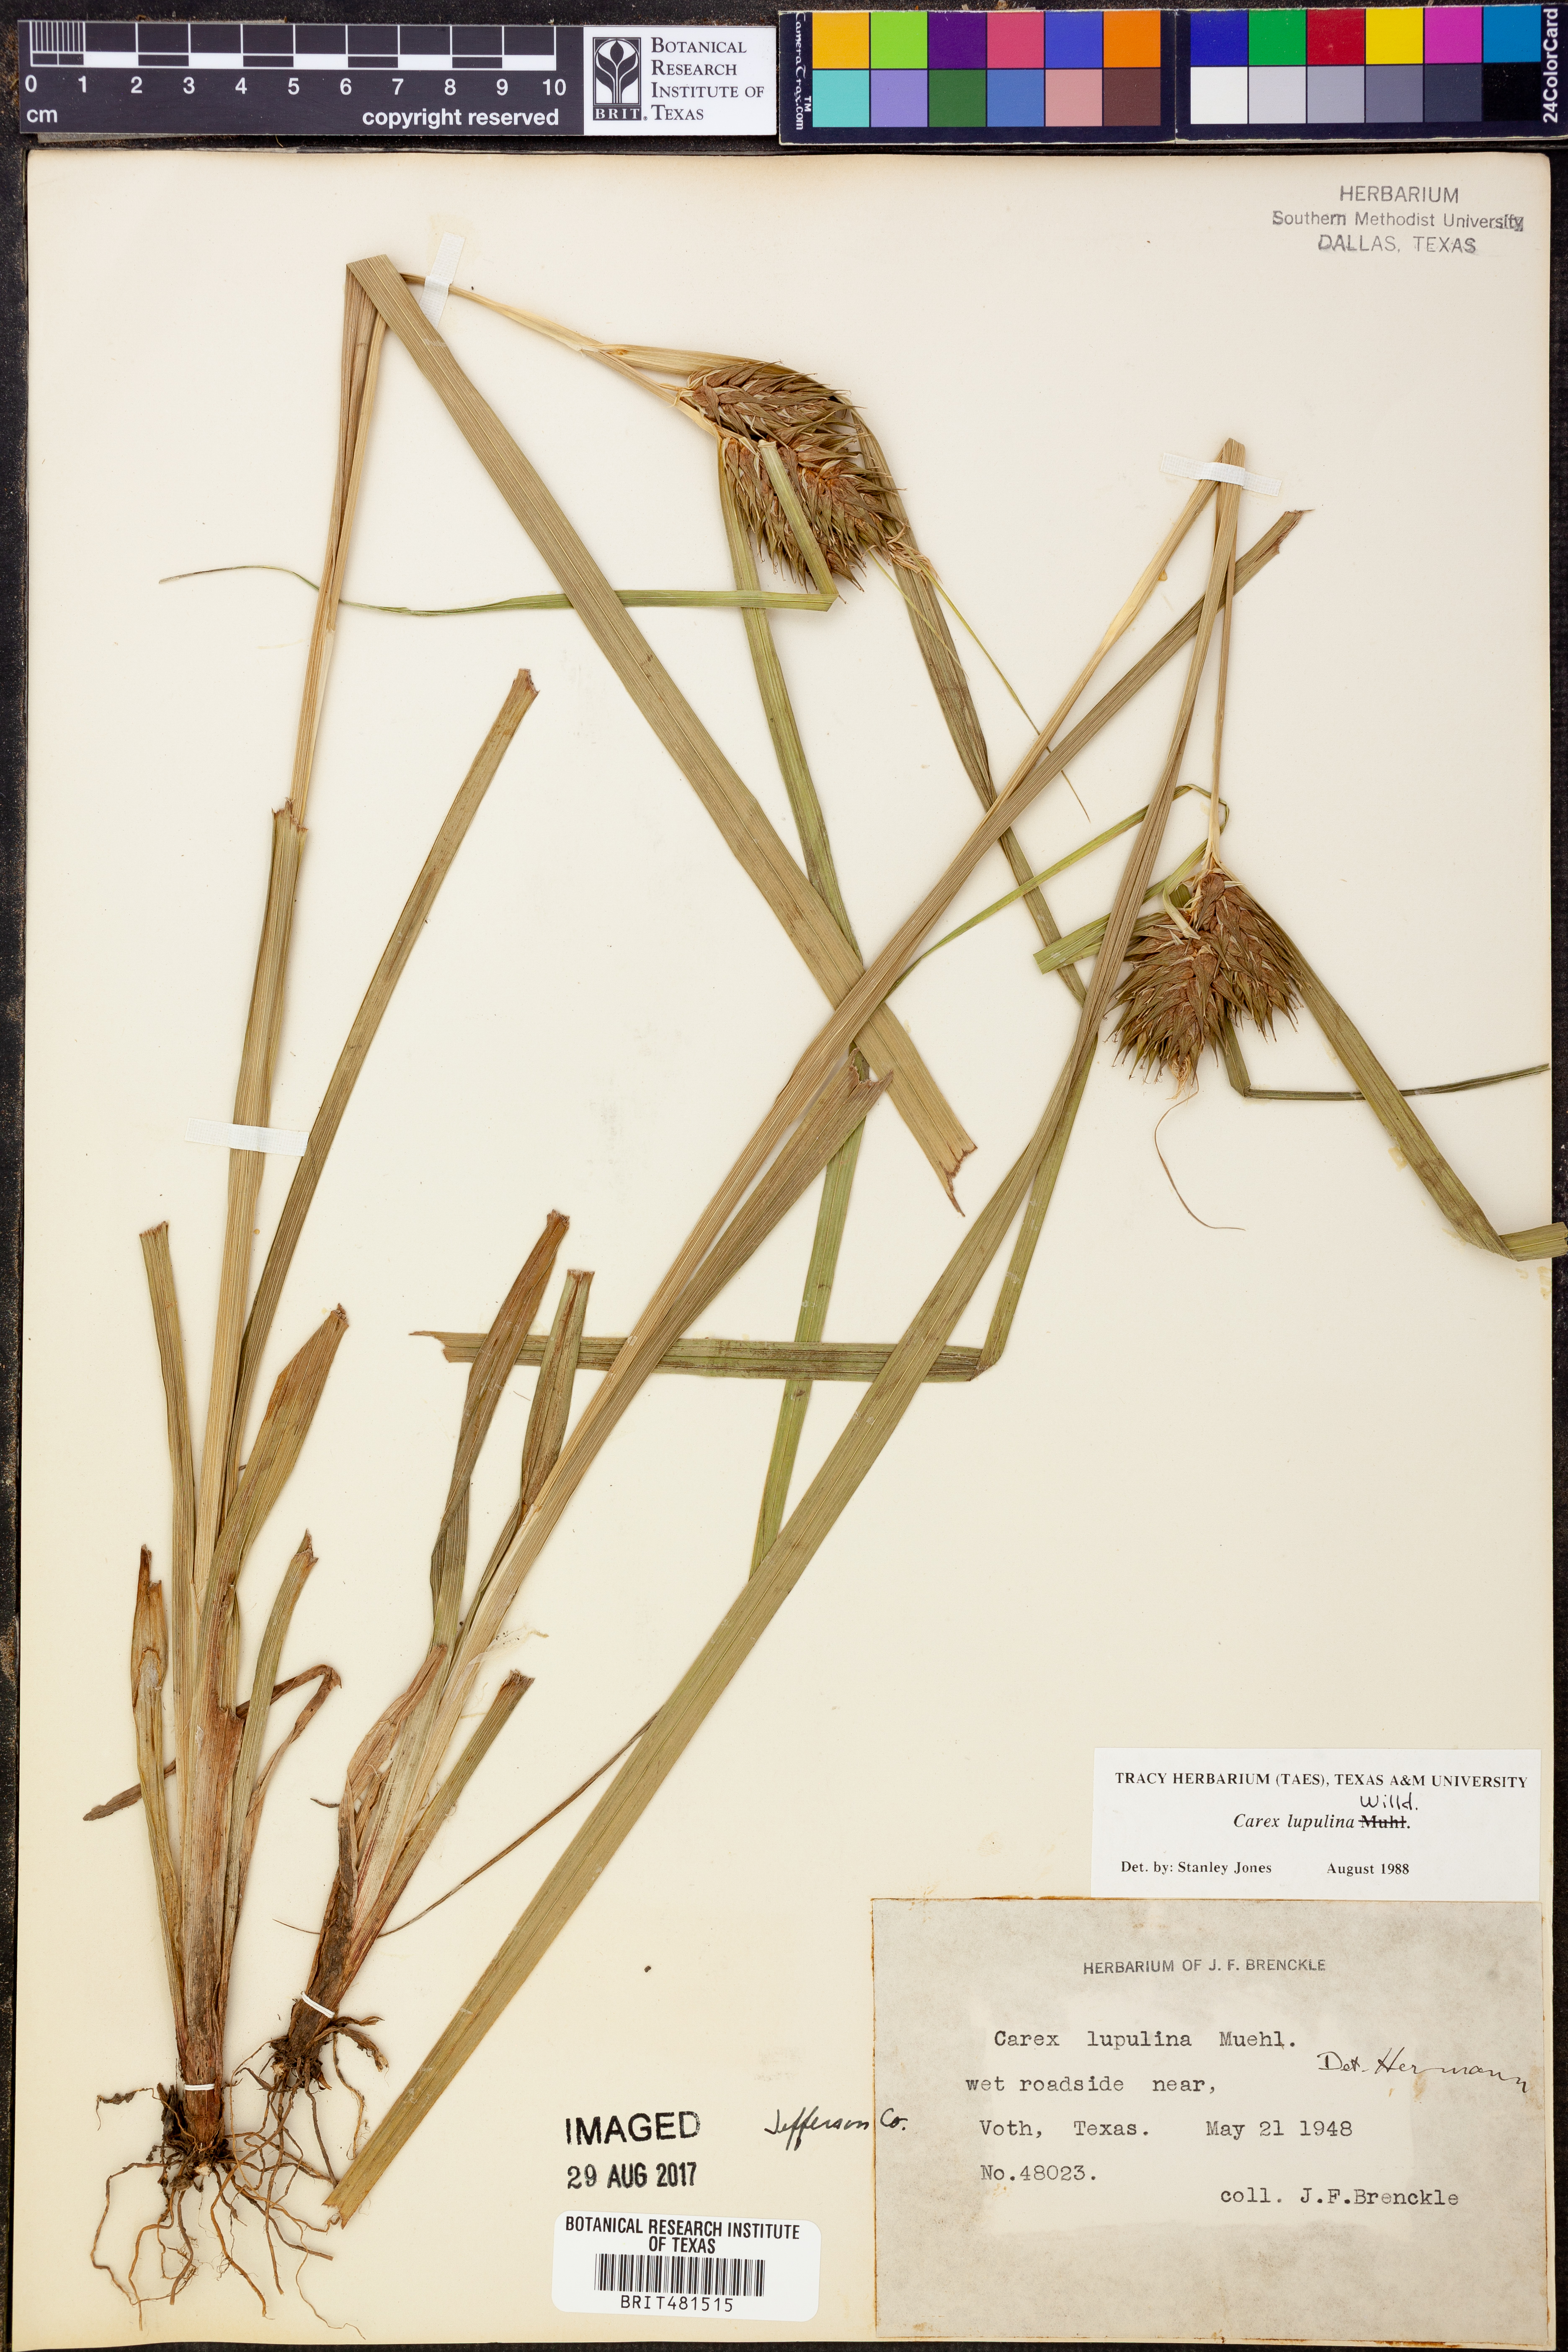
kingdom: Plantae
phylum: Tracheophyta
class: Liliopsida
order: Poales
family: Cyperaceae
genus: Carex
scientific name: Carex lupulina
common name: Hop sedge
